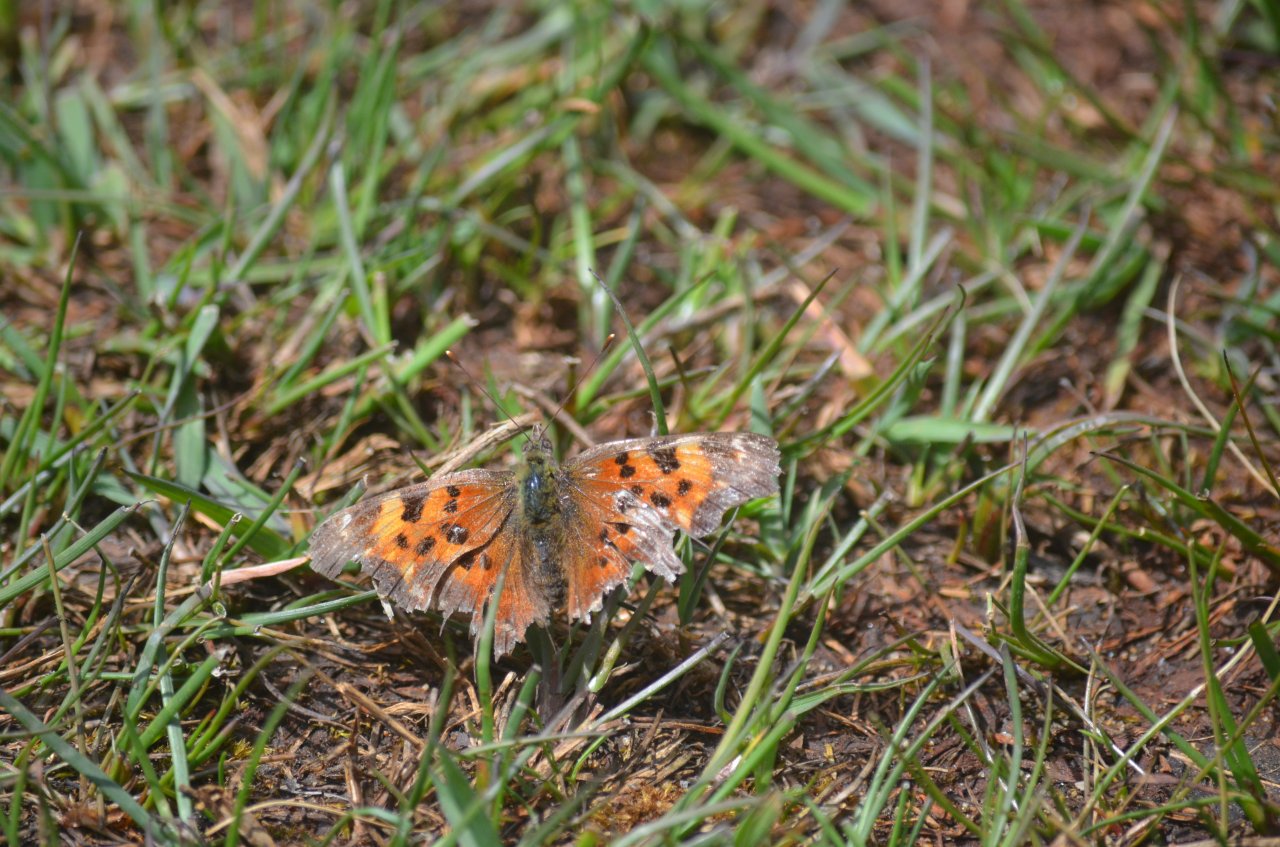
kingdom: Animalia
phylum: Arthropoda
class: Insecta
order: Lepidoptera
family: Nymphalidae
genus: Polygonia
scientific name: Polygonia faunus
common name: Green Comma
